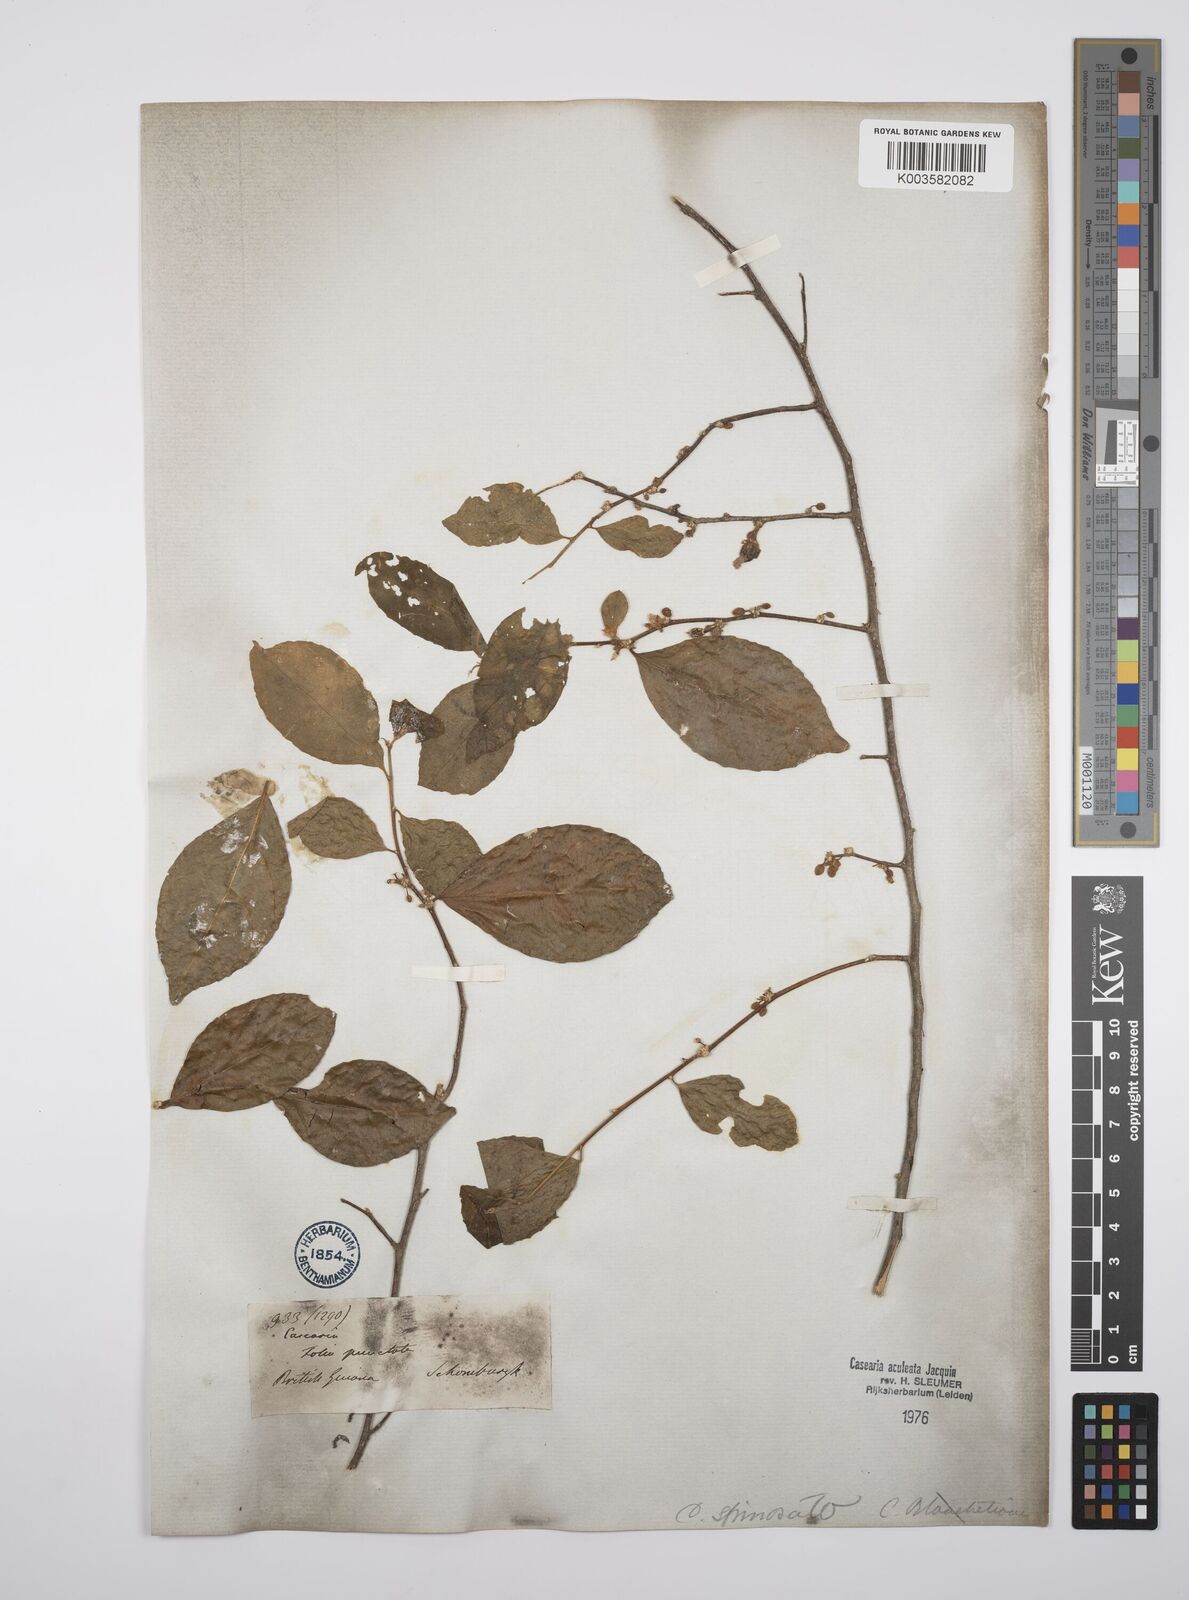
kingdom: Plantae
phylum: Tracheophyta
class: Magnoliopsida
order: Malpighiales
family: Salicaceae
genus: Casearia
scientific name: Casearia aculeata
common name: Cockspur
